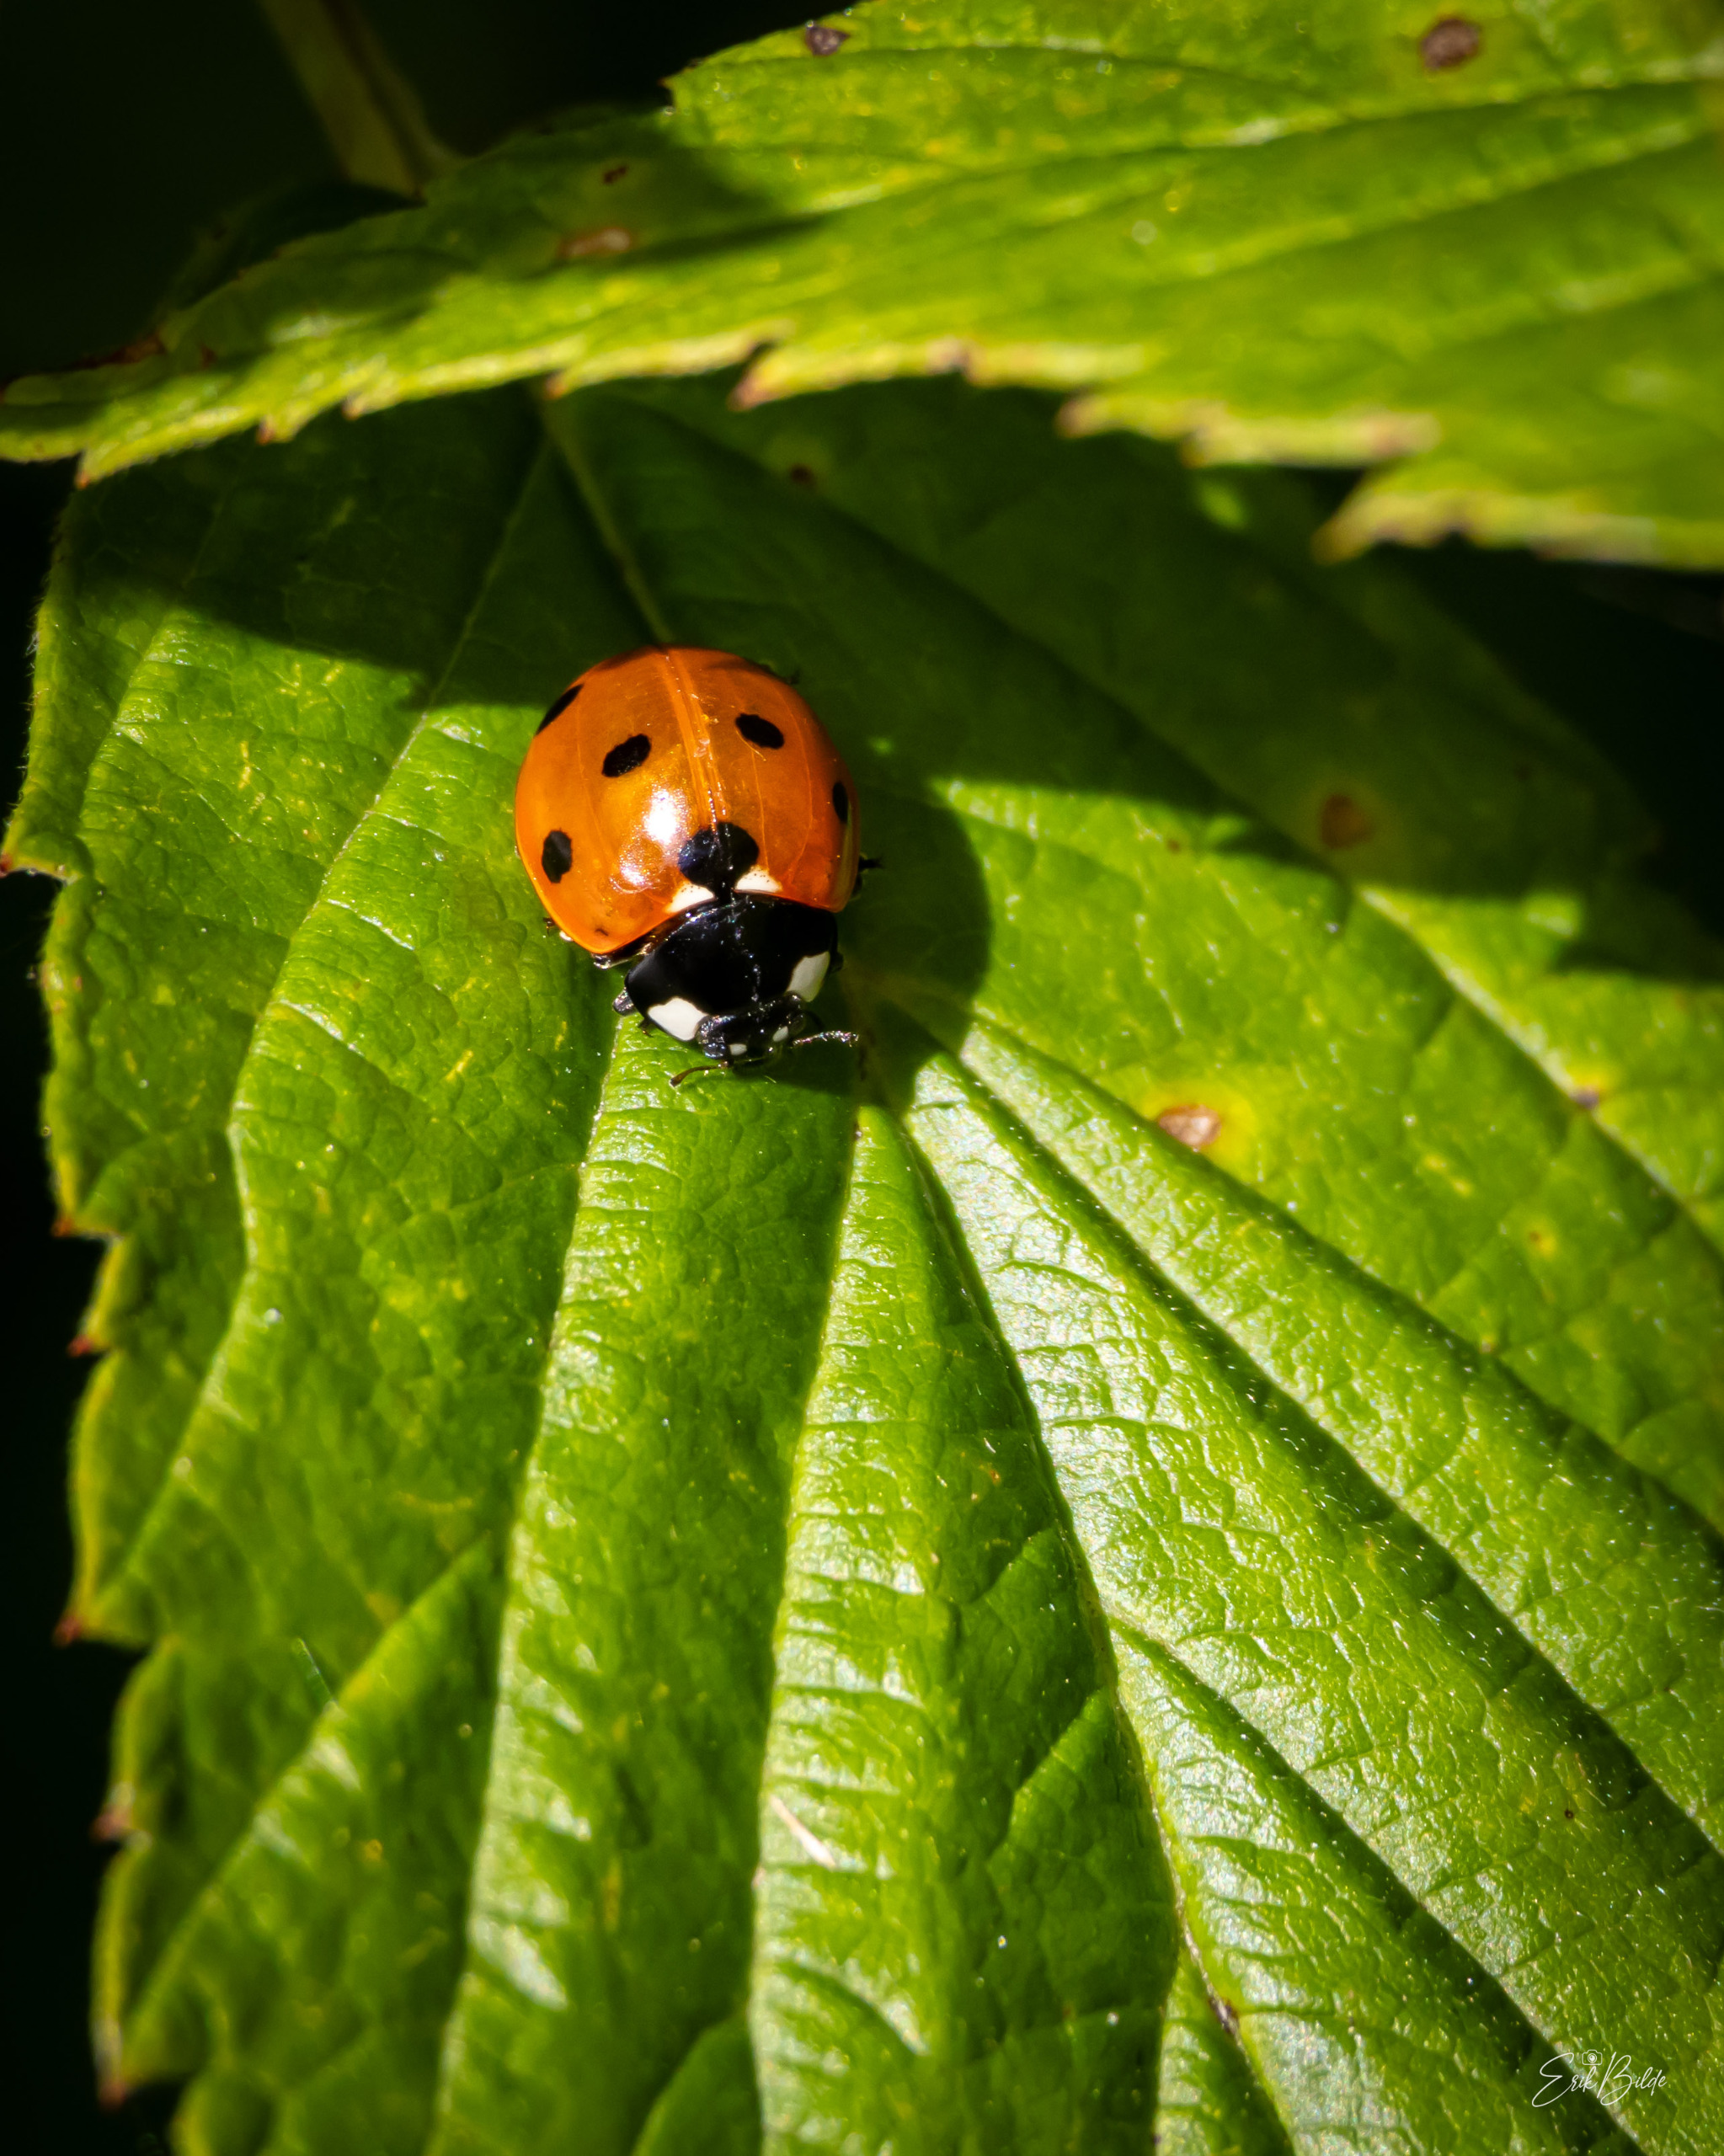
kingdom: Animalia
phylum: Arthropoda
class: Insecta
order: Coleoptera
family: Coccinellidae
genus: Coccinella
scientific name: Coccinella septempunctata
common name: Syvplettet mariehøne
